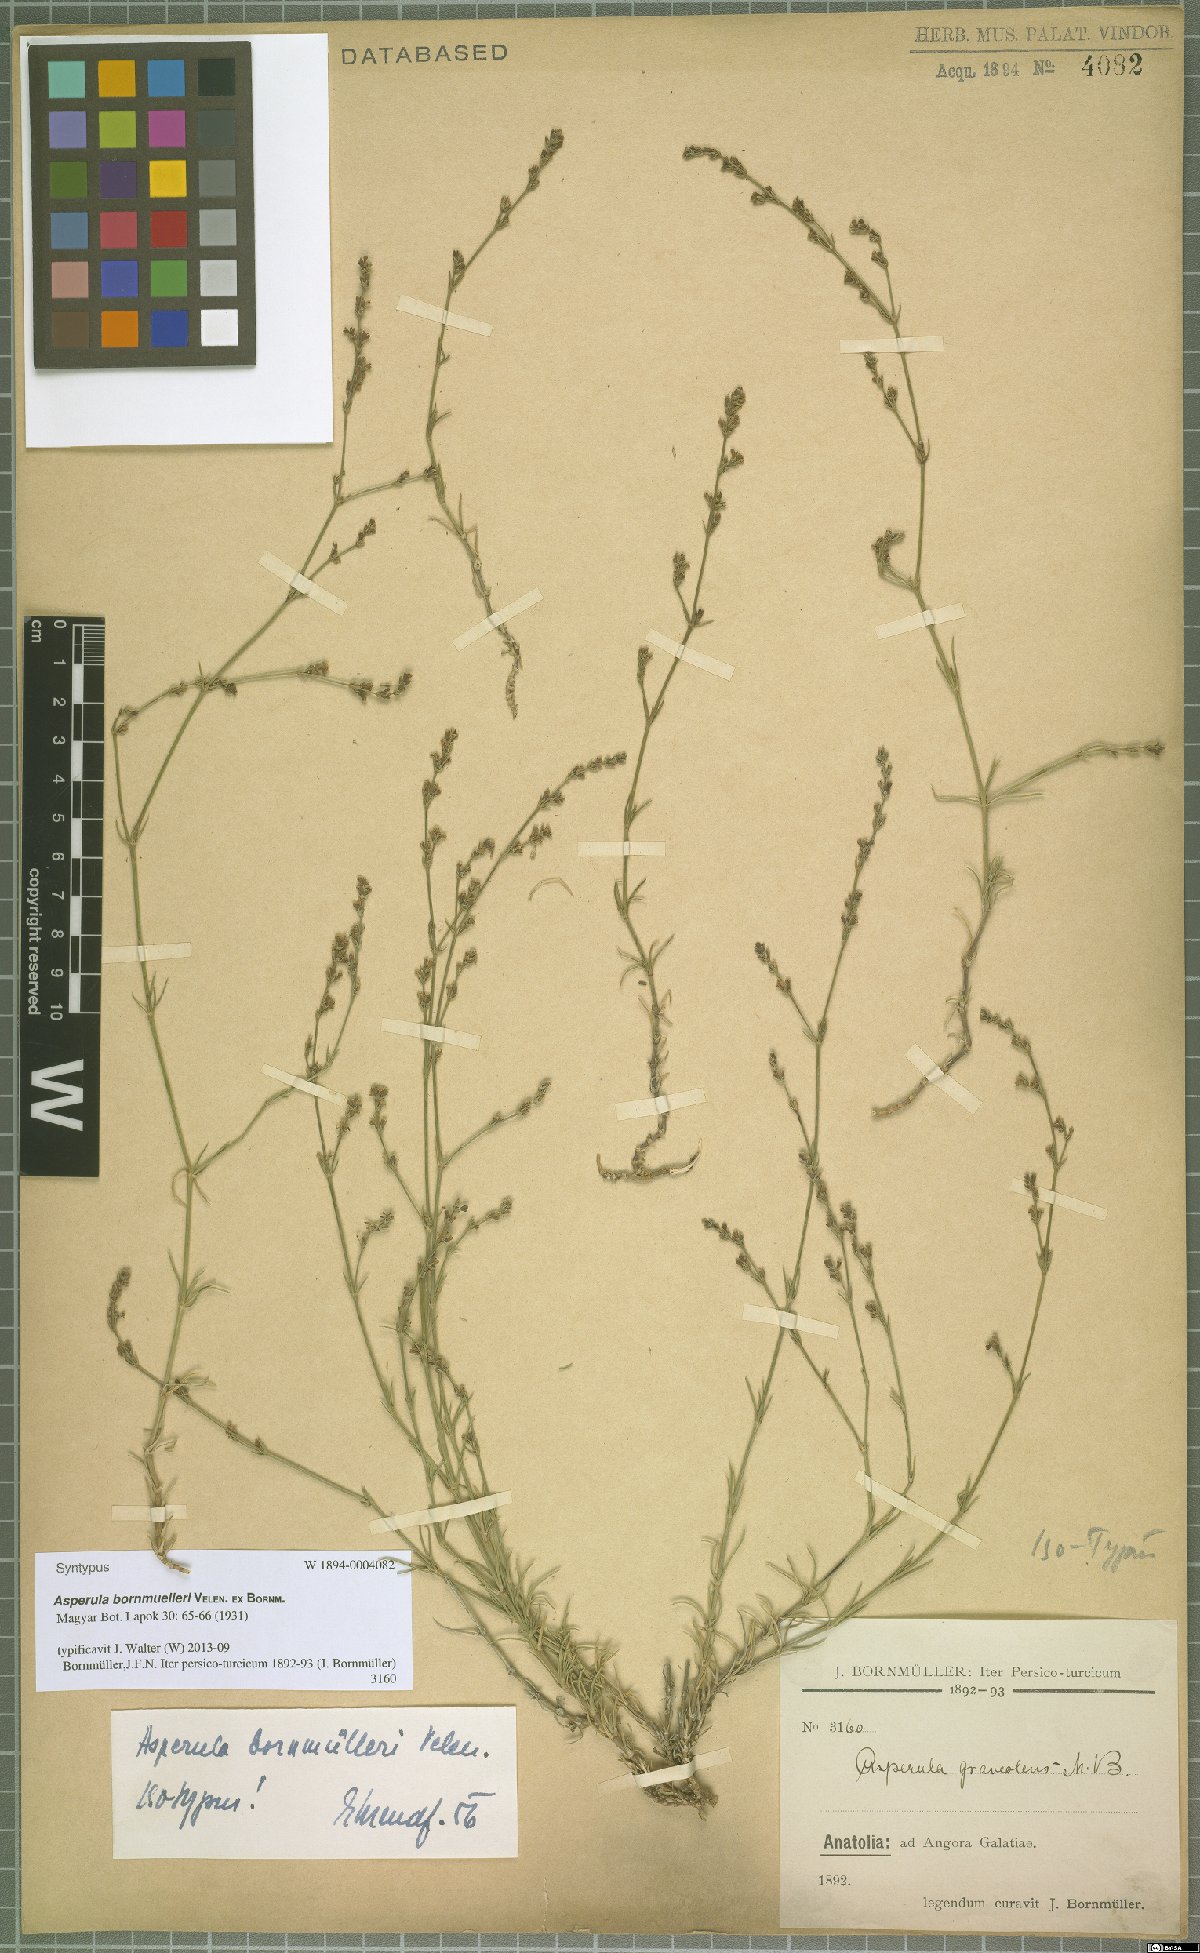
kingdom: Plantae
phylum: Tracheophyta
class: Magnoliopsida
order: Gentianales
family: Rubiaceae
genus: Cynanchica
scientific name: Cynanchica bornmuelleri
